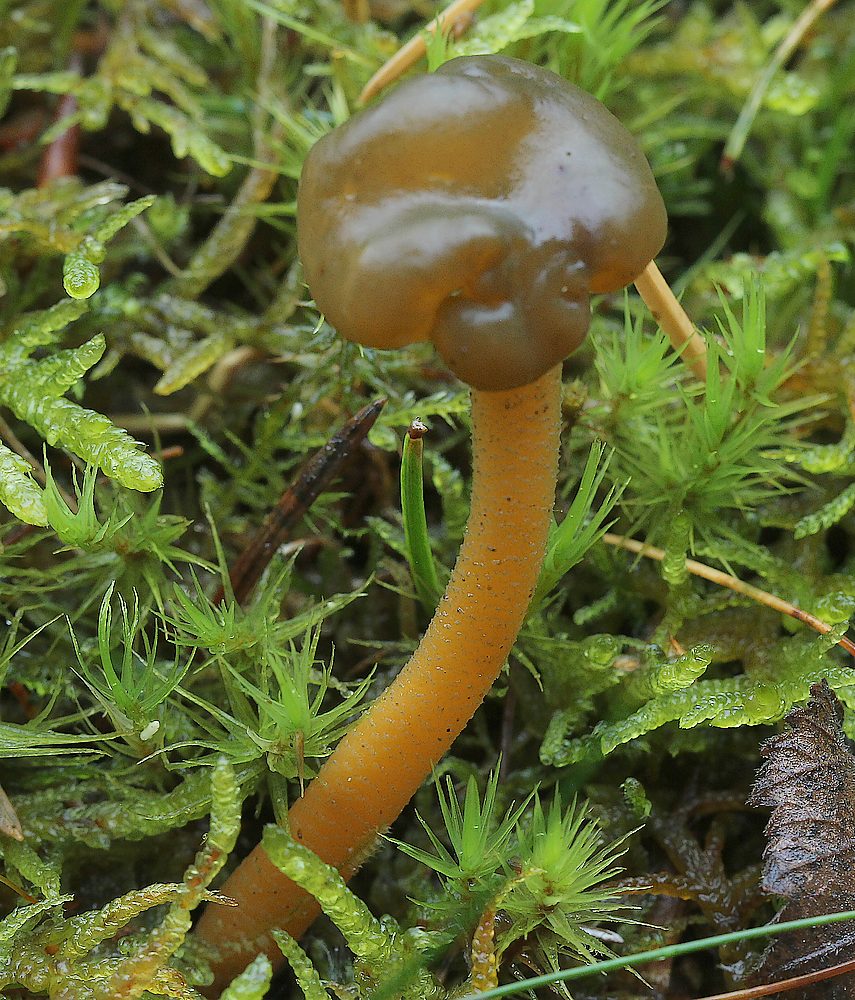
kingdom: Fungi
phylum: Ascomycota
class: Leotiomycetes
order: Leotiales
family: Leotiaceae
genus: Leotia
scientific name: Leotia lubrica
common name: ravsvamp
